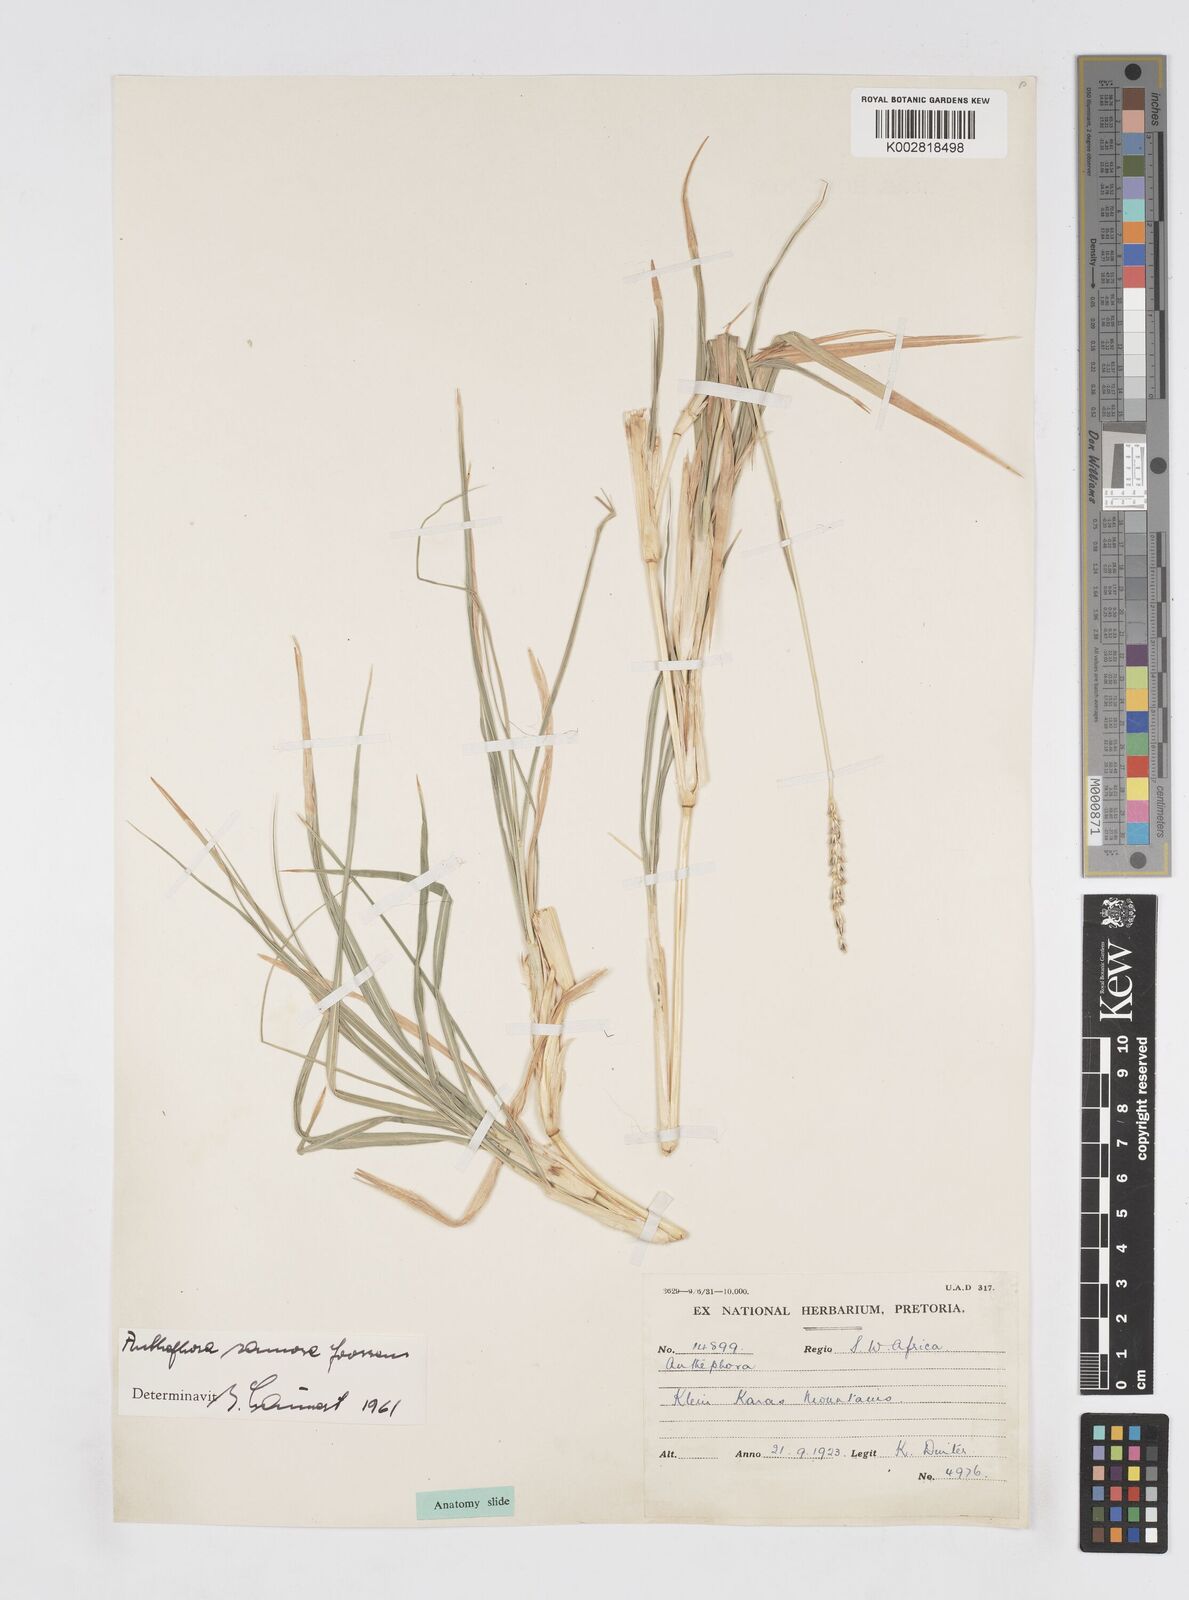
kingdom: Plantae
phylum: Tracheophyta
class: Liliopsida
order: Poales
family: Poaceae
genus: Anthephora
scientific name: Anthephora pubescens
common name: Wool grass
